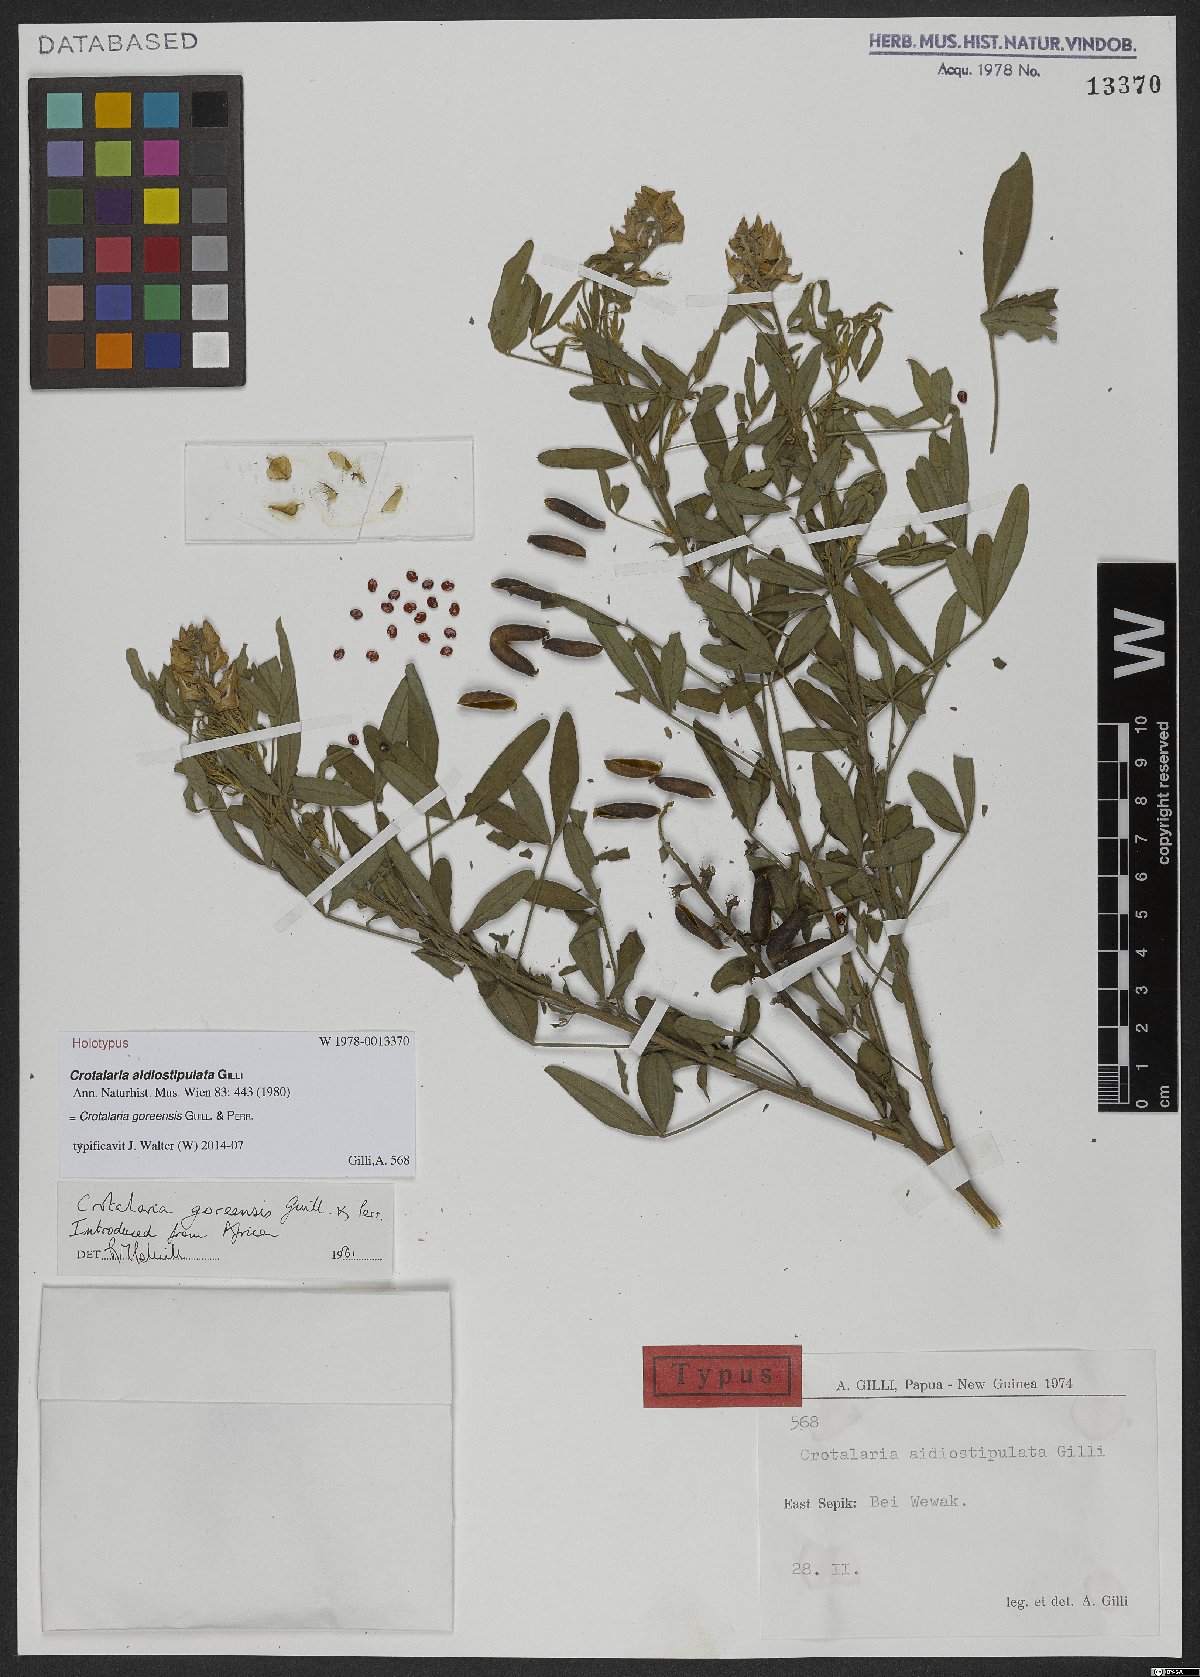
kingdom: Plantae
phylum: Tracheophyta
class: Magnoliopsida
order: Fabales
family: Fabaceae
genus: Crotalaria
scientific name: Crotalaria goreensis
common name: Gambia-pea
